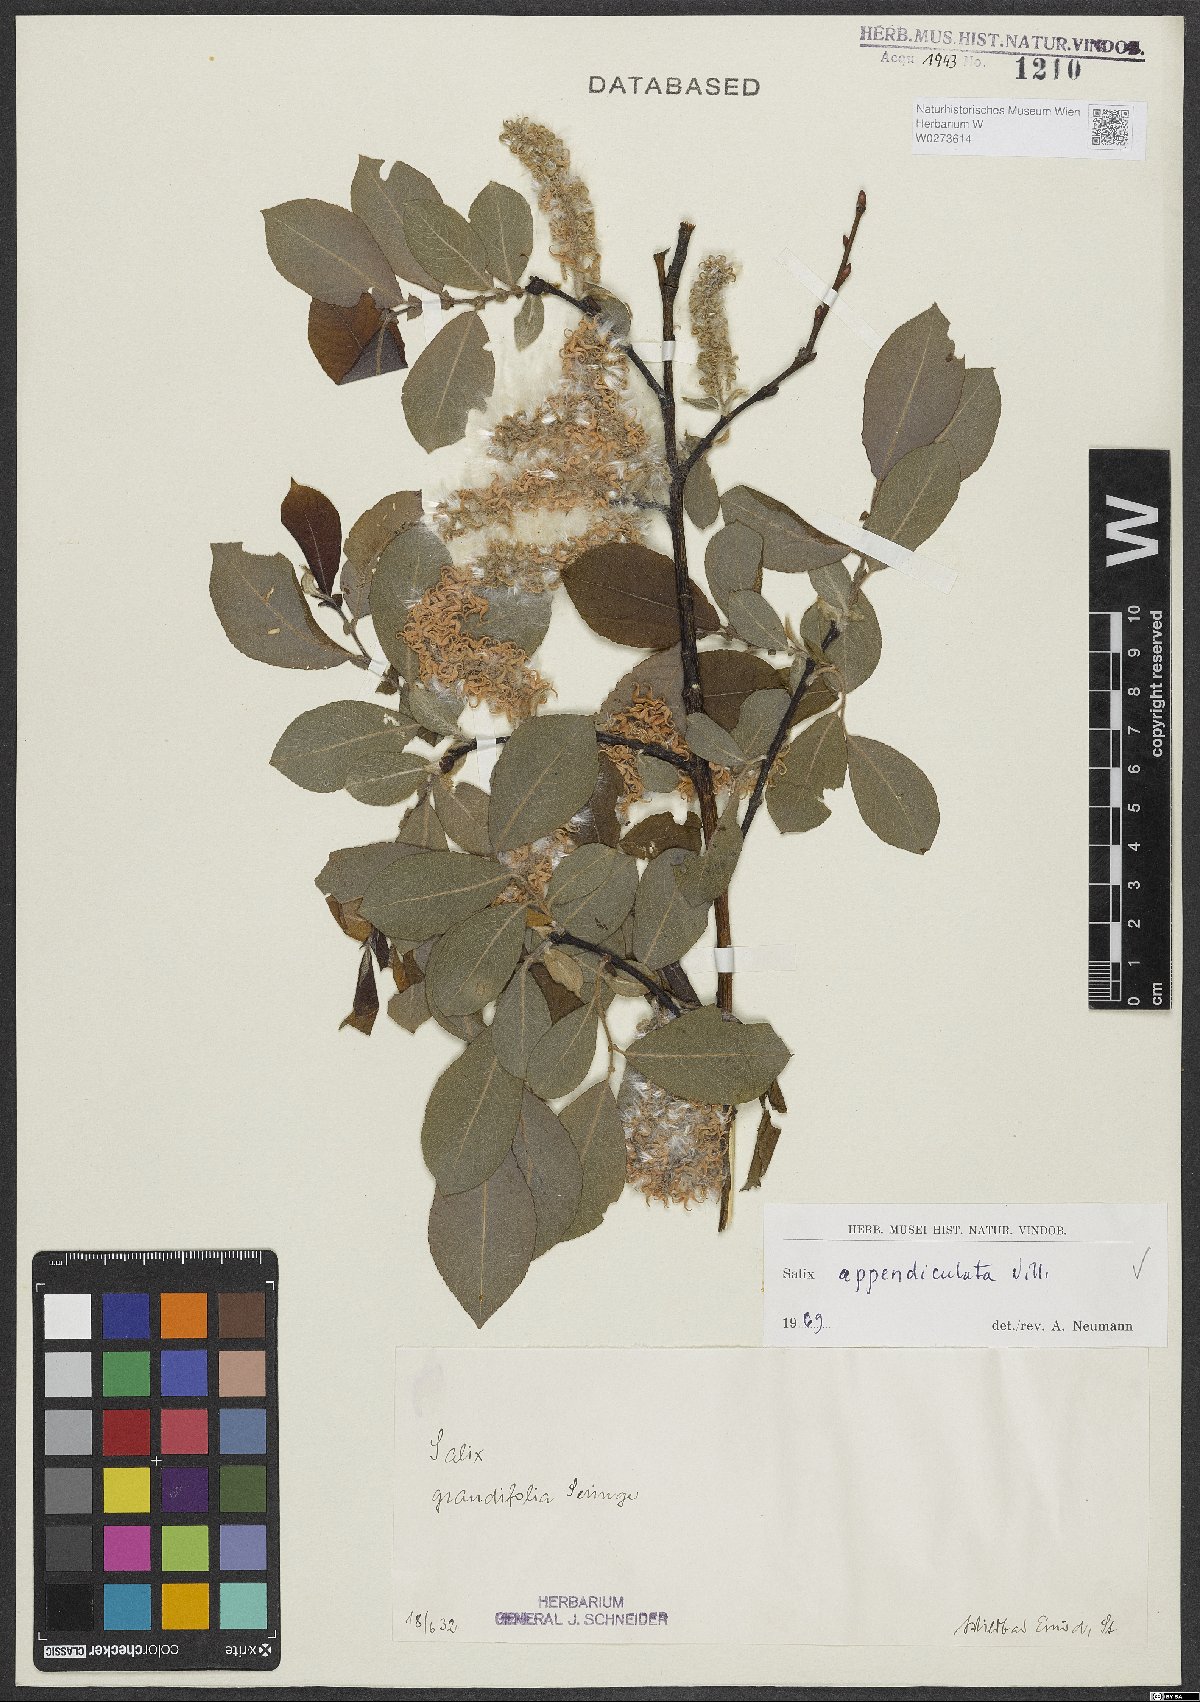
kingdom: Plantae
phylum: Tracheophyta
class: Magnoliopsida
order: Malpighiales
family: Salicaceae
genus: Salix
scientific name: Salix appendiculata
